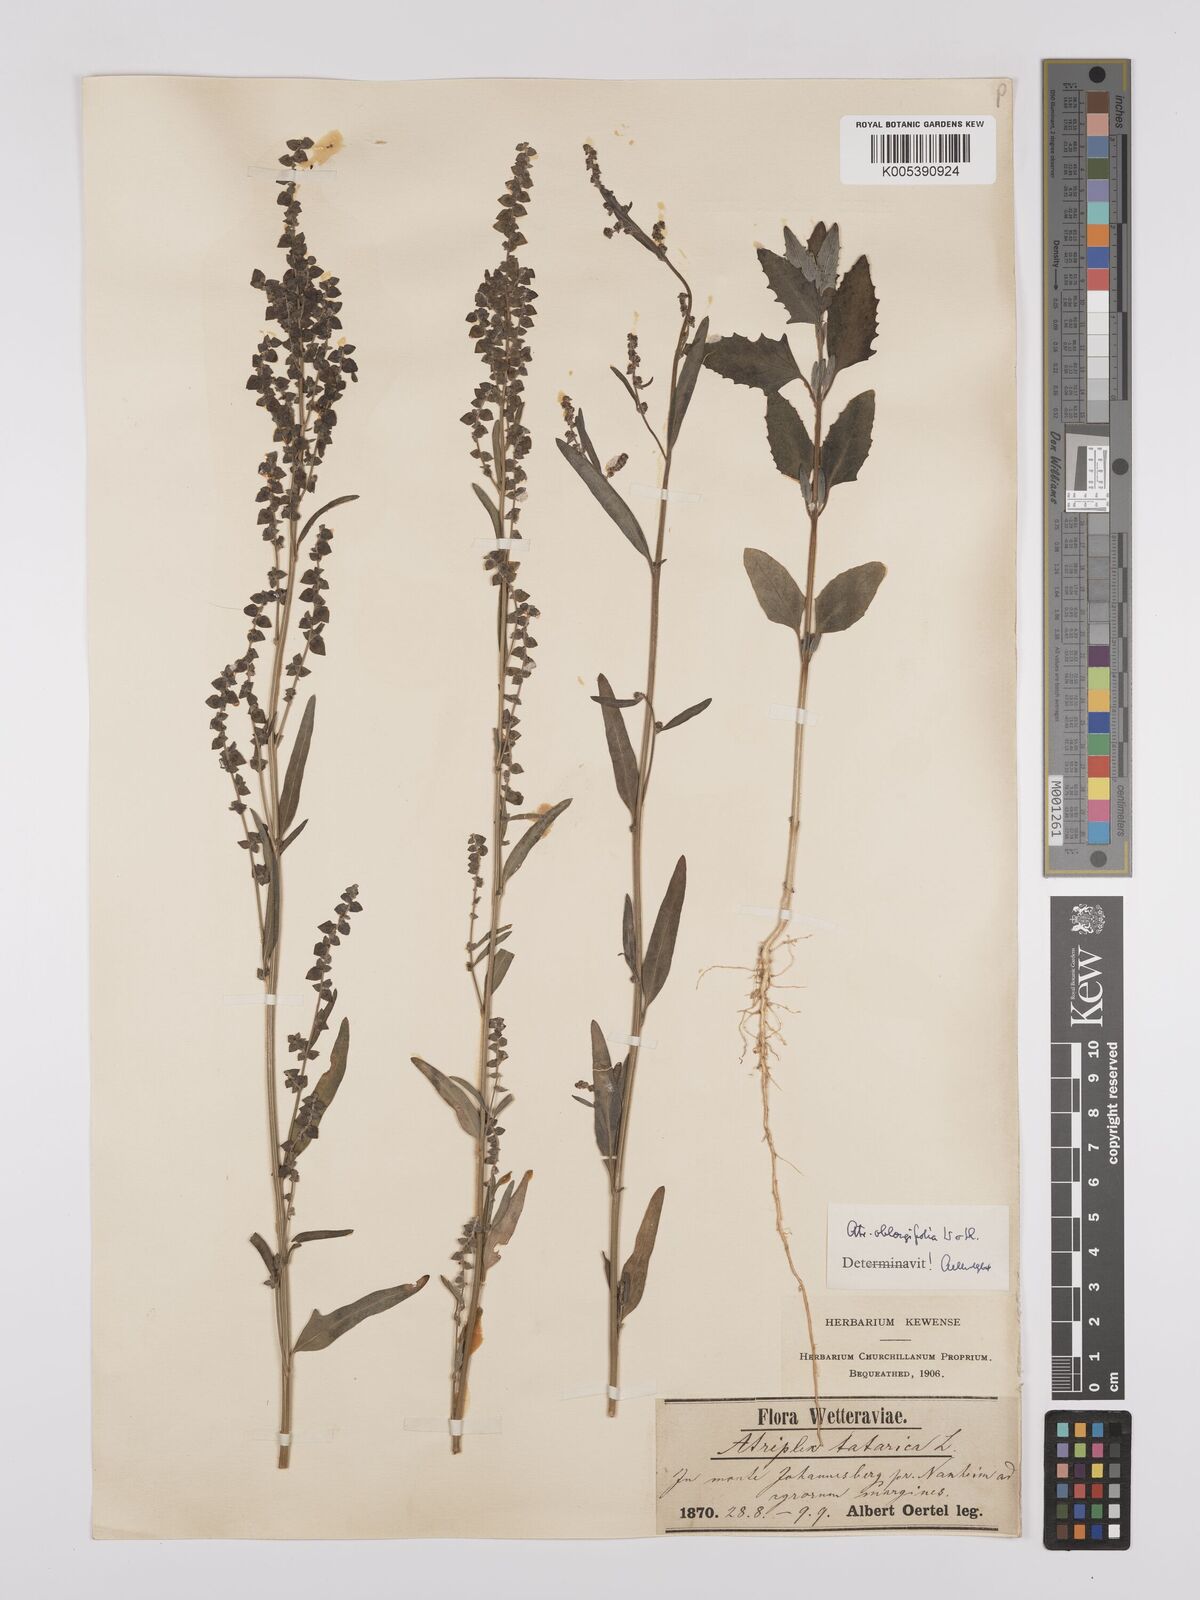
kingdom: Plantae
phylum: Tracheophyta
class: Magnoliopsida
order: Caryophyllales
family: Amaranthaceae
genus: Atriplex
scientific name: Atriplex
